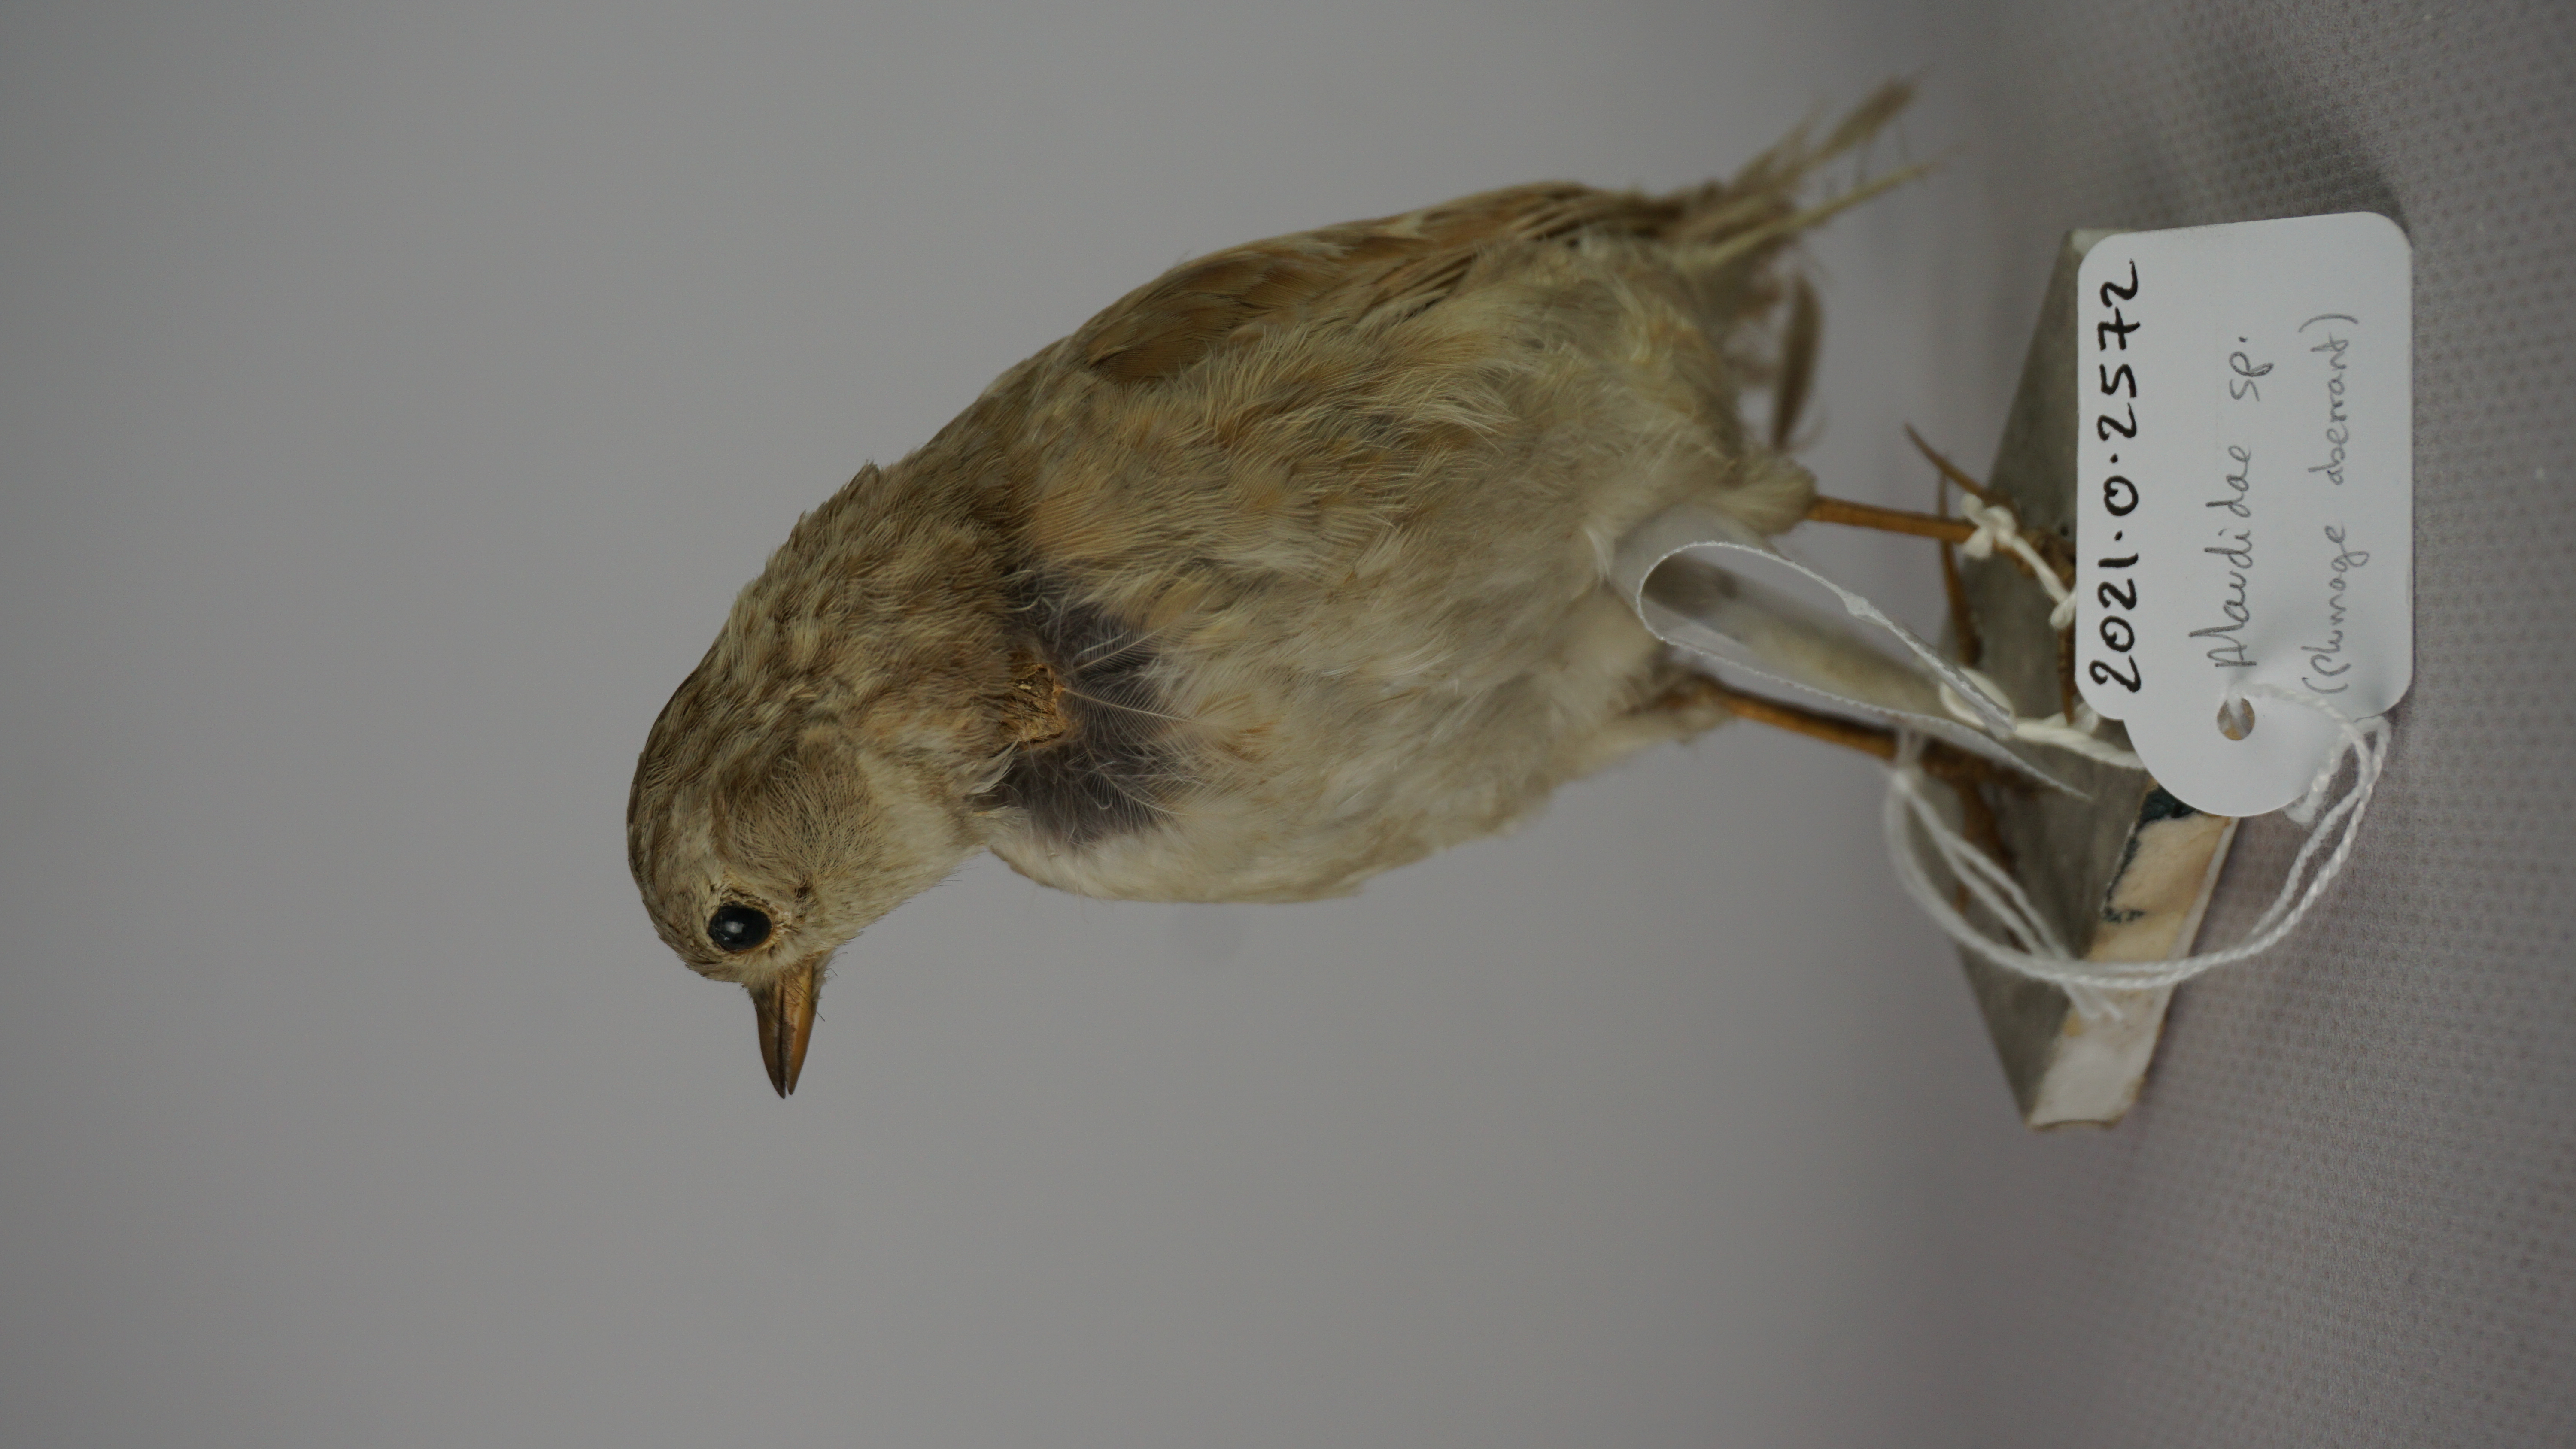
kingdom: Animalia
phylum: Chordata
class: Aves
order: Passeriformes
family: Alaudidae
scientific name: Alaudidae
